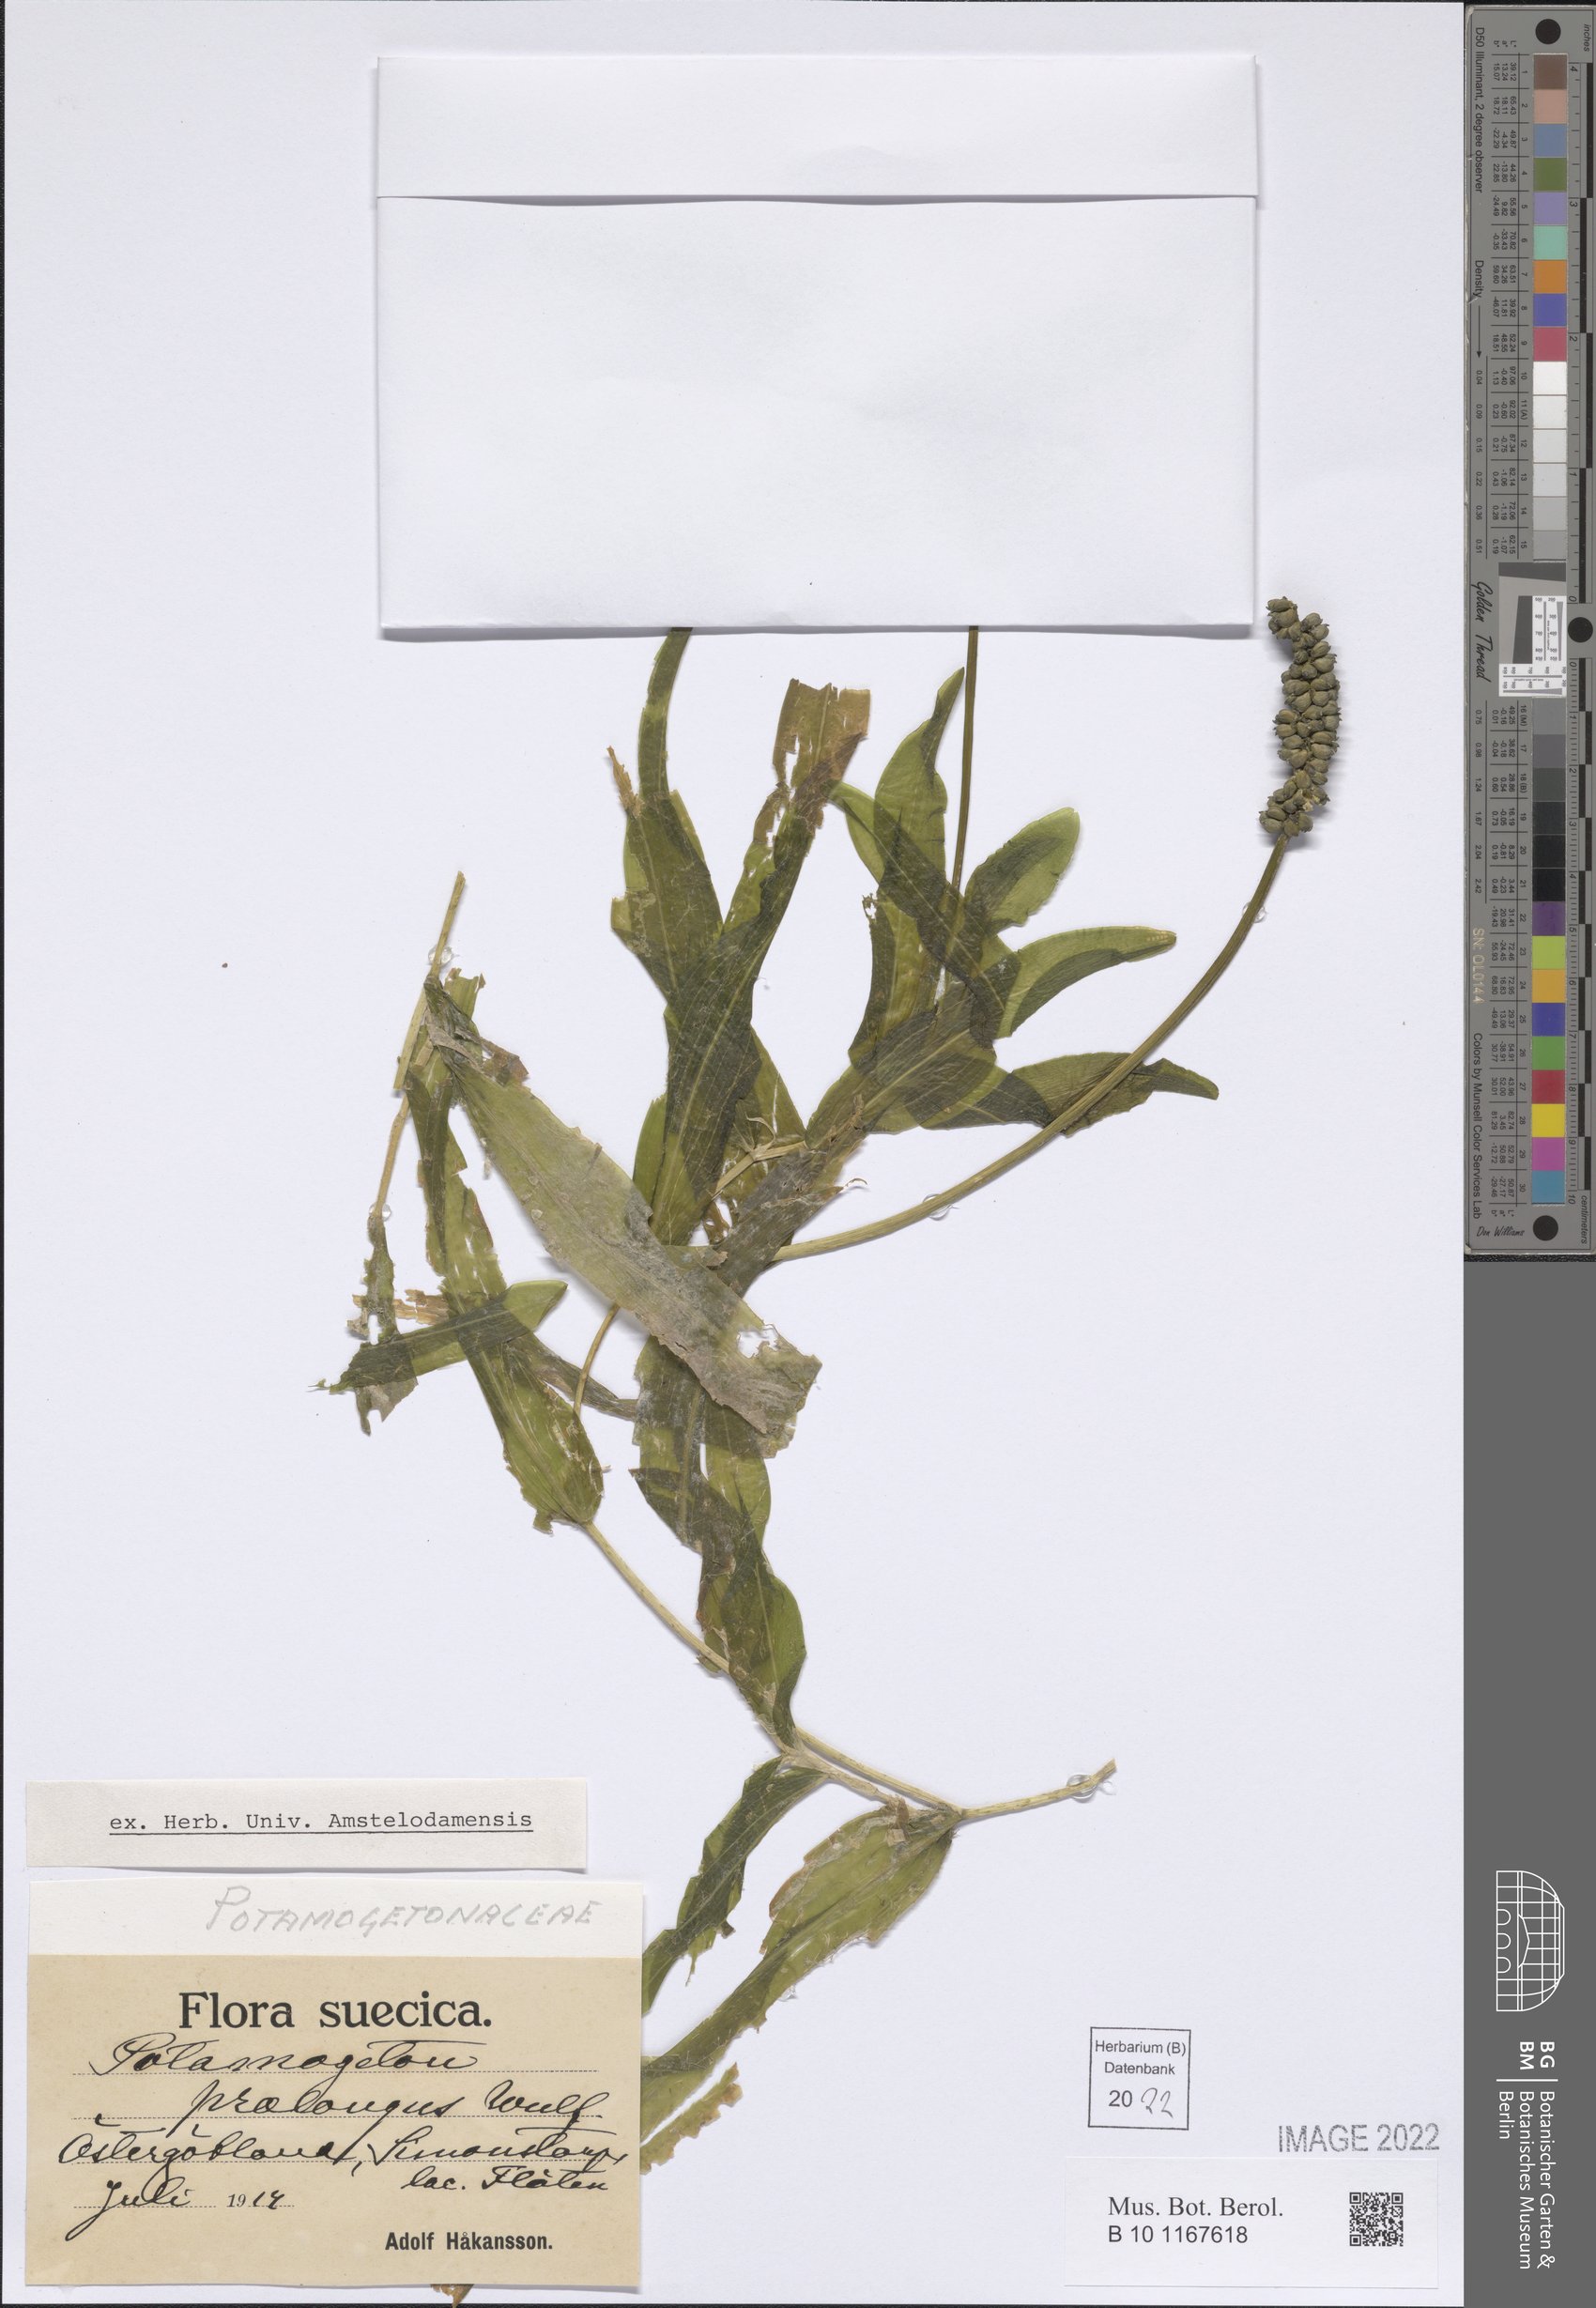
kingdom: Plantae
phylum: Tracheophyta
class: Liliopsida
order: Alismatales
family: Potamogetonaceae
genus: Potamogeton
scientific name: Potamogeton praelongus
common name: Long-stalked pondweed
